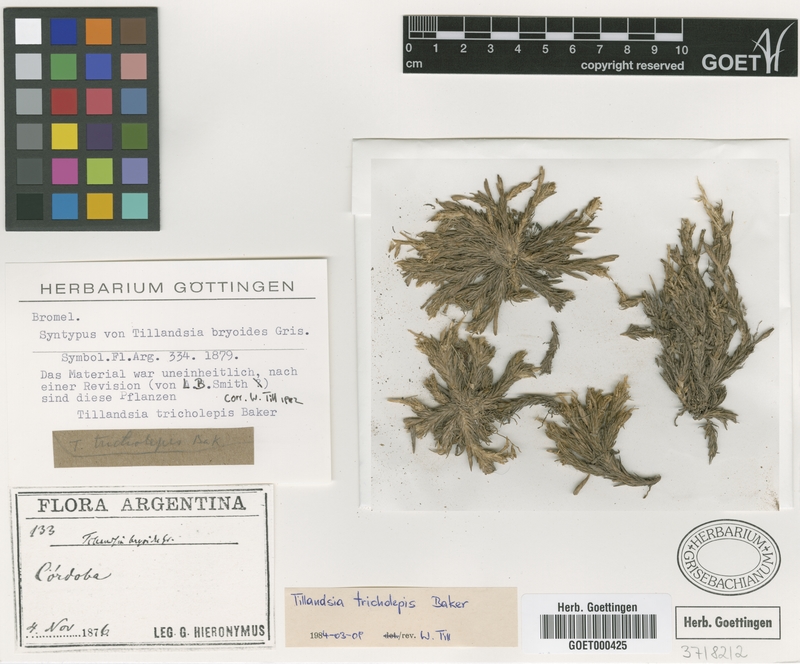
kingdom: Plantae
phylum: Tracheophyta
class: Liliopsida
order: Poales
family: Bromeliaceae
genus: Tillandsia
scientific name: Tillandsia bryoides
